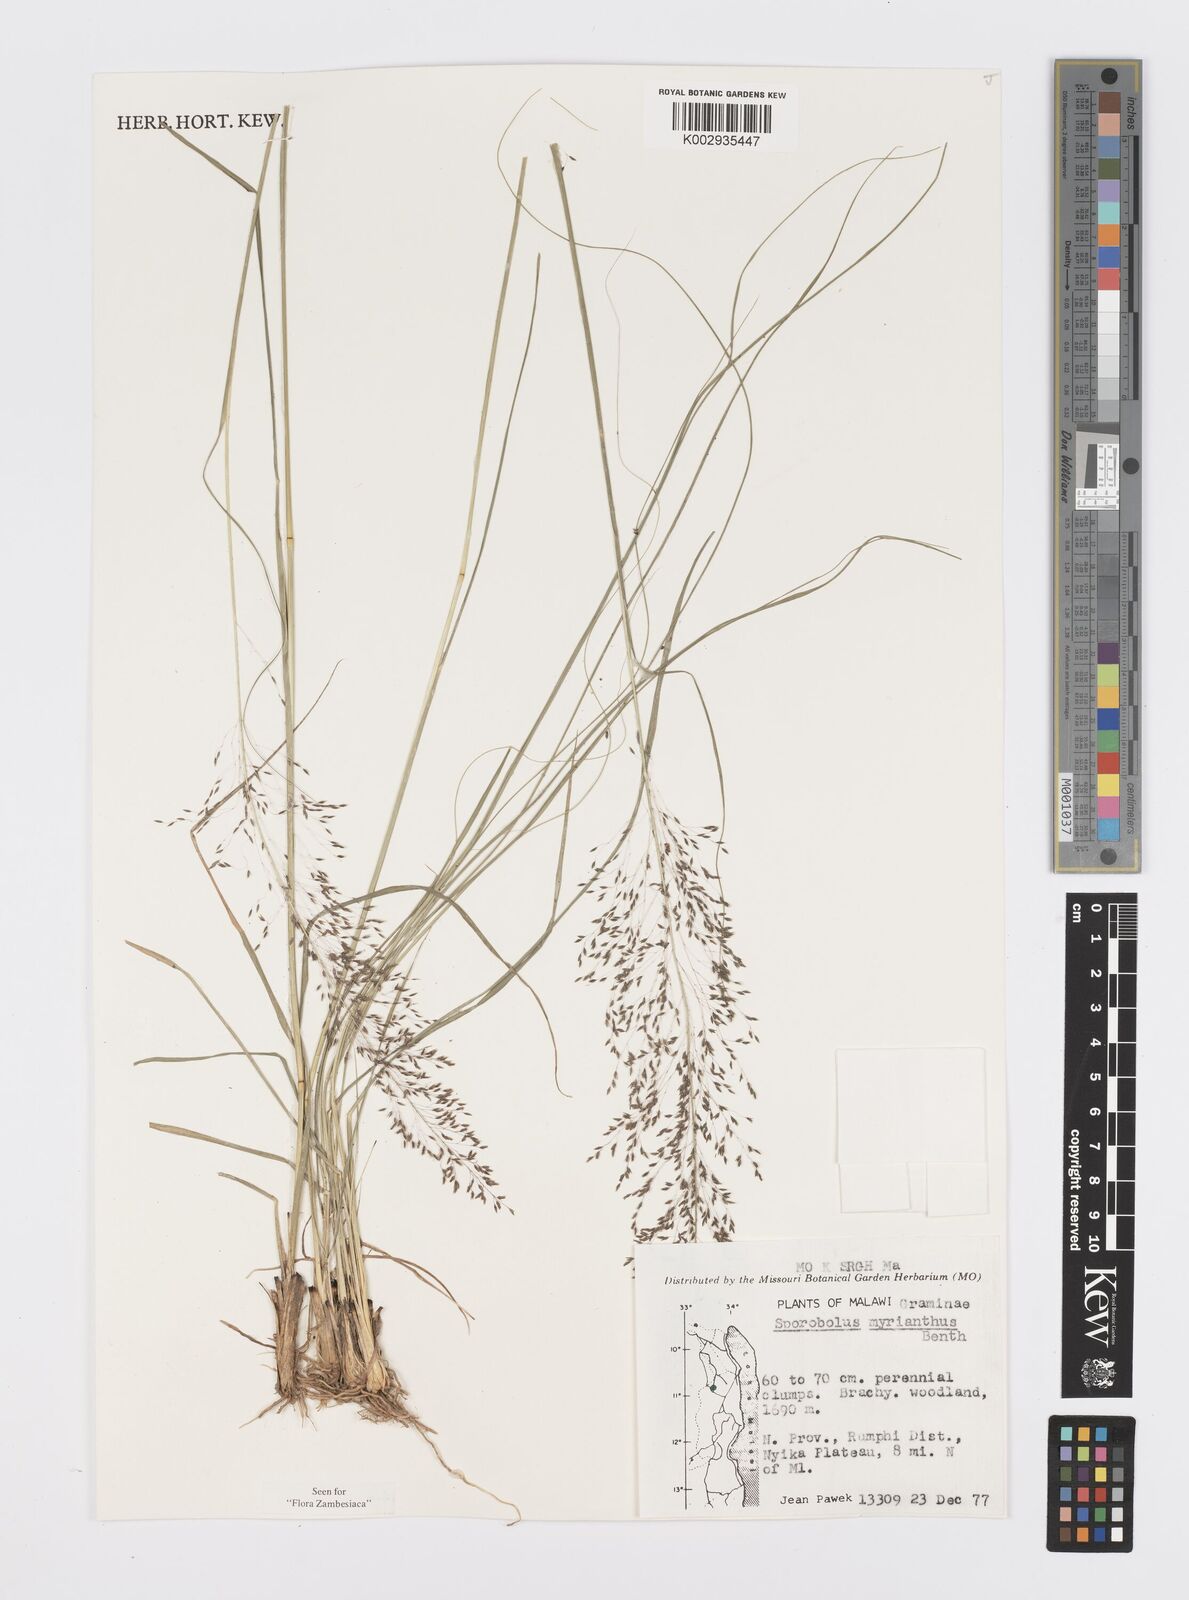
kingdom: Plantae
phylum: Tracheophyta
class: Liliopsida
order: Poales
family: Poaceae
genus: Sporobolus
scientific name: Sporobolus myrianthus
